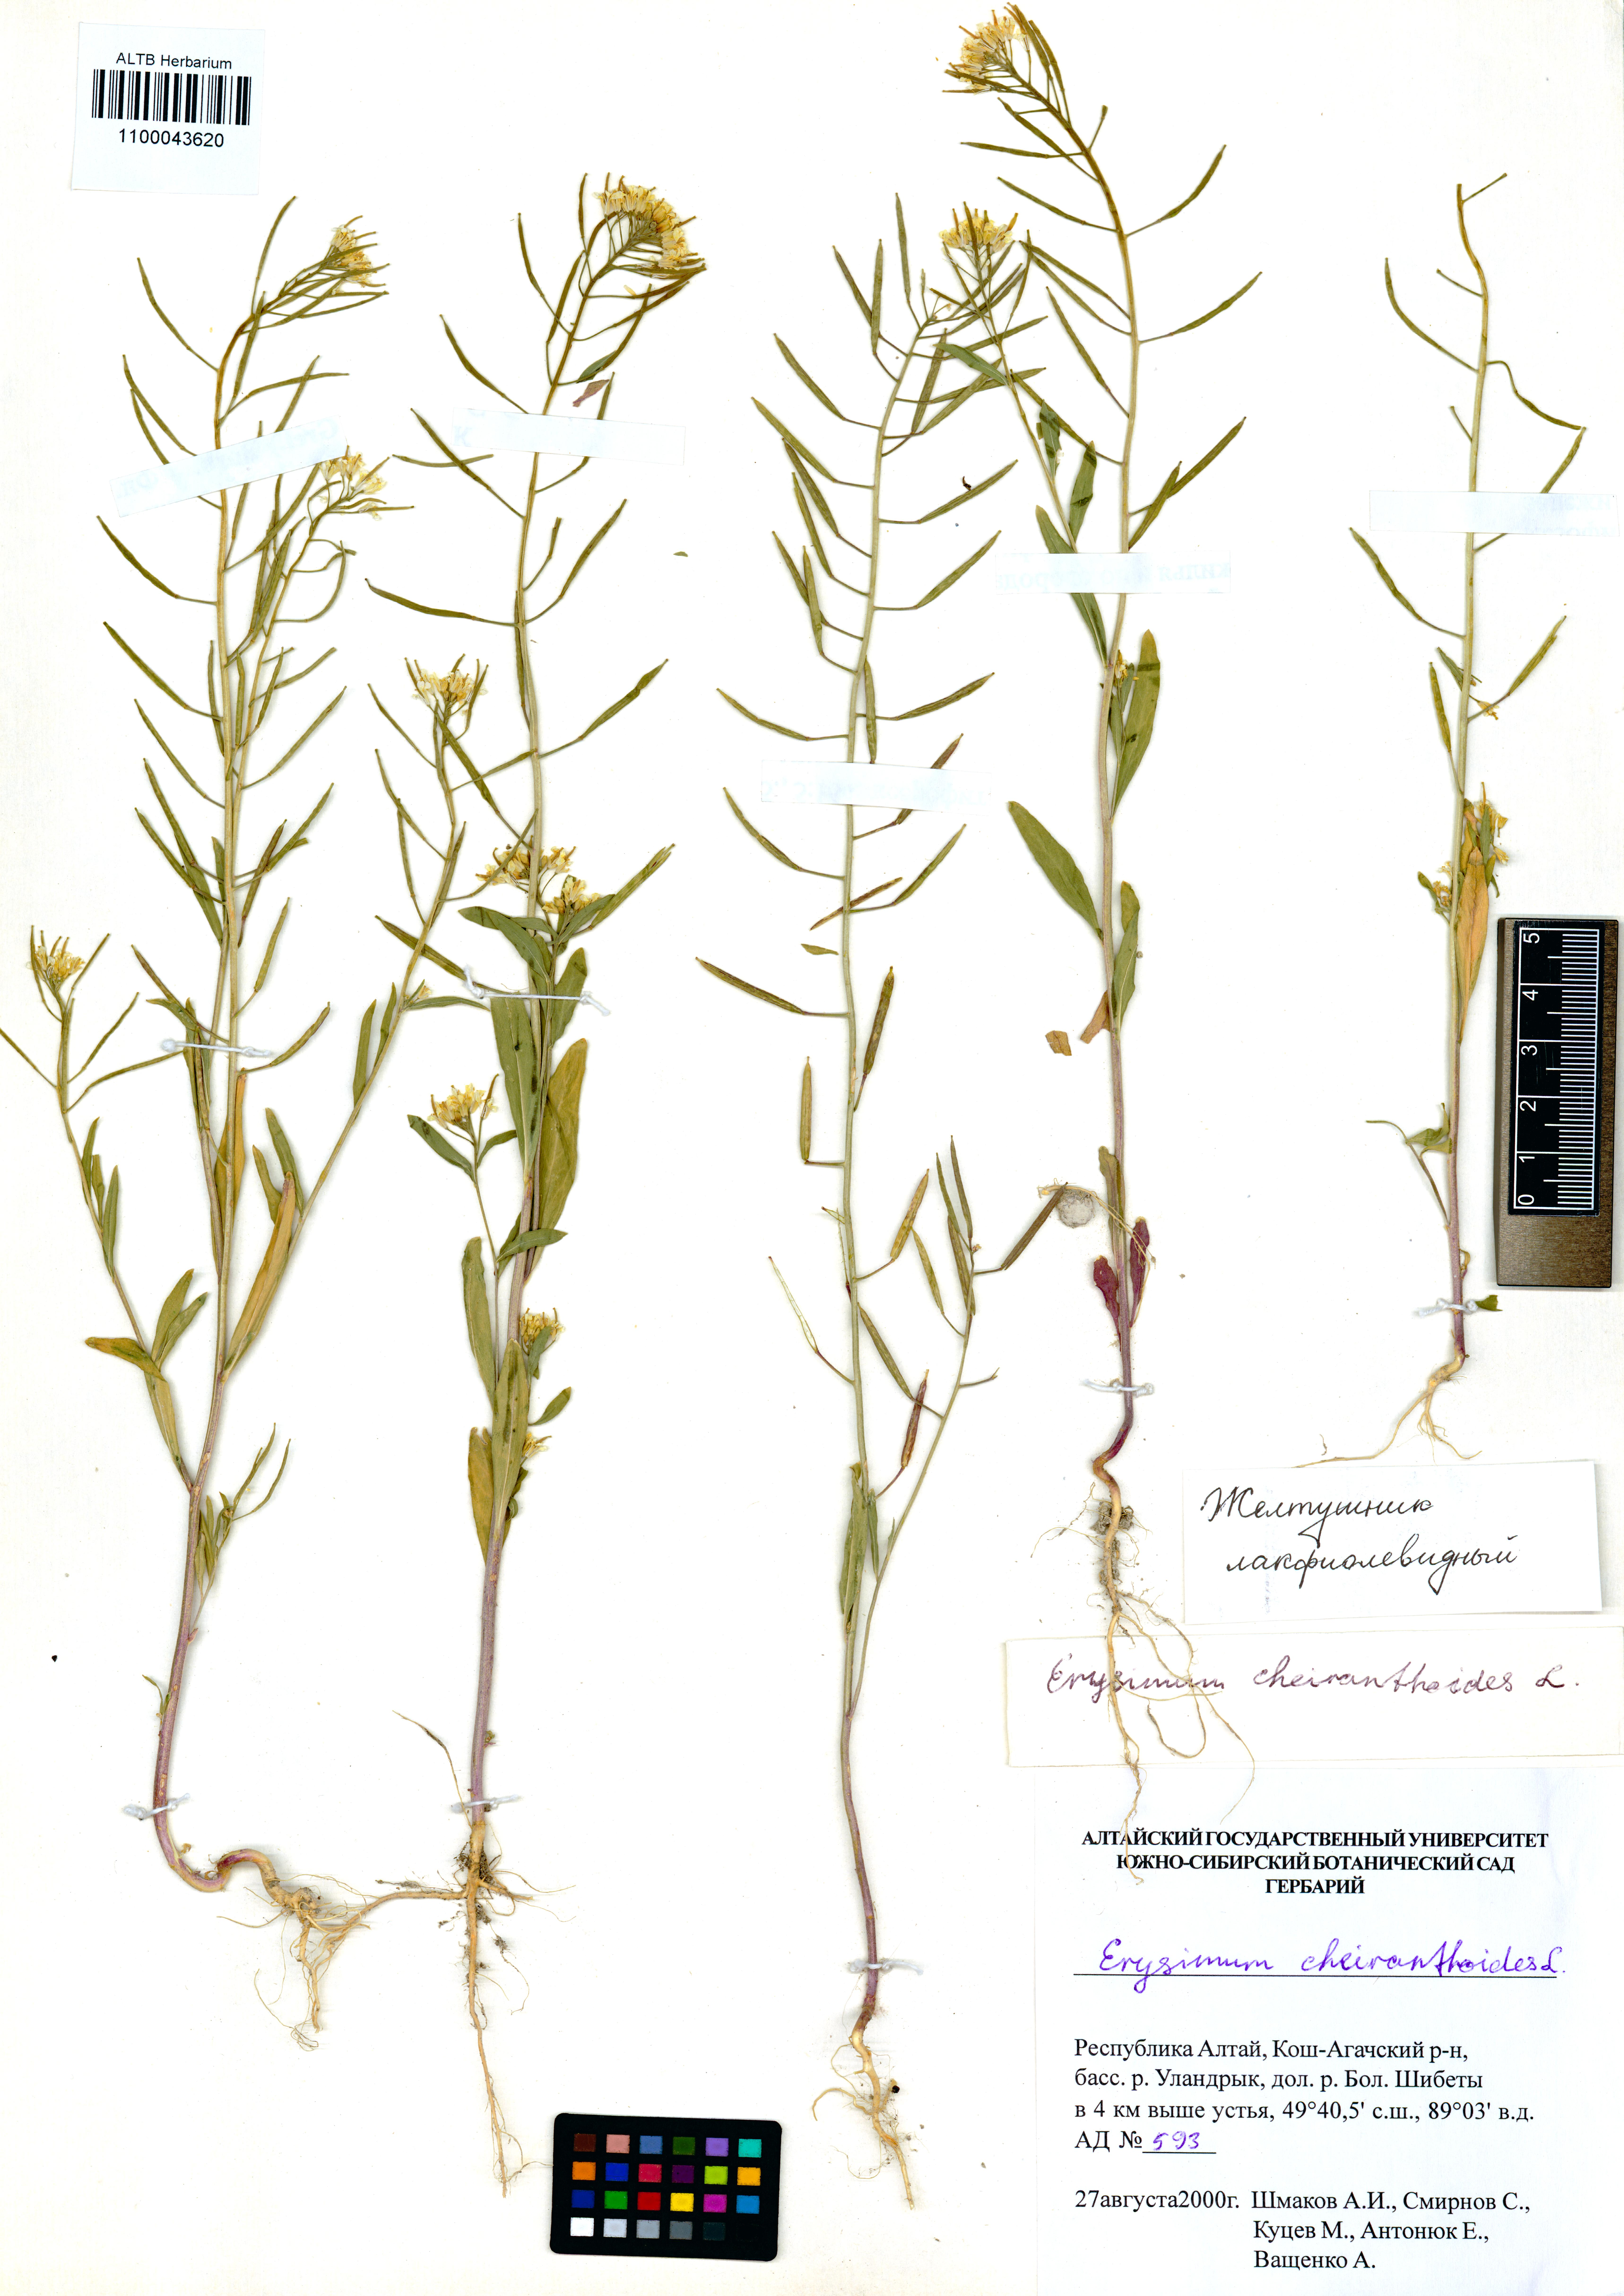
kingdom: Plantae
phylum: Tracheophyta
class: Magnoliopsida
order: Brassicales
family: Brassicaceae
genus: Erysimum
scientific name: Erysimum cheiranthoides
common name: Treacle mustard
